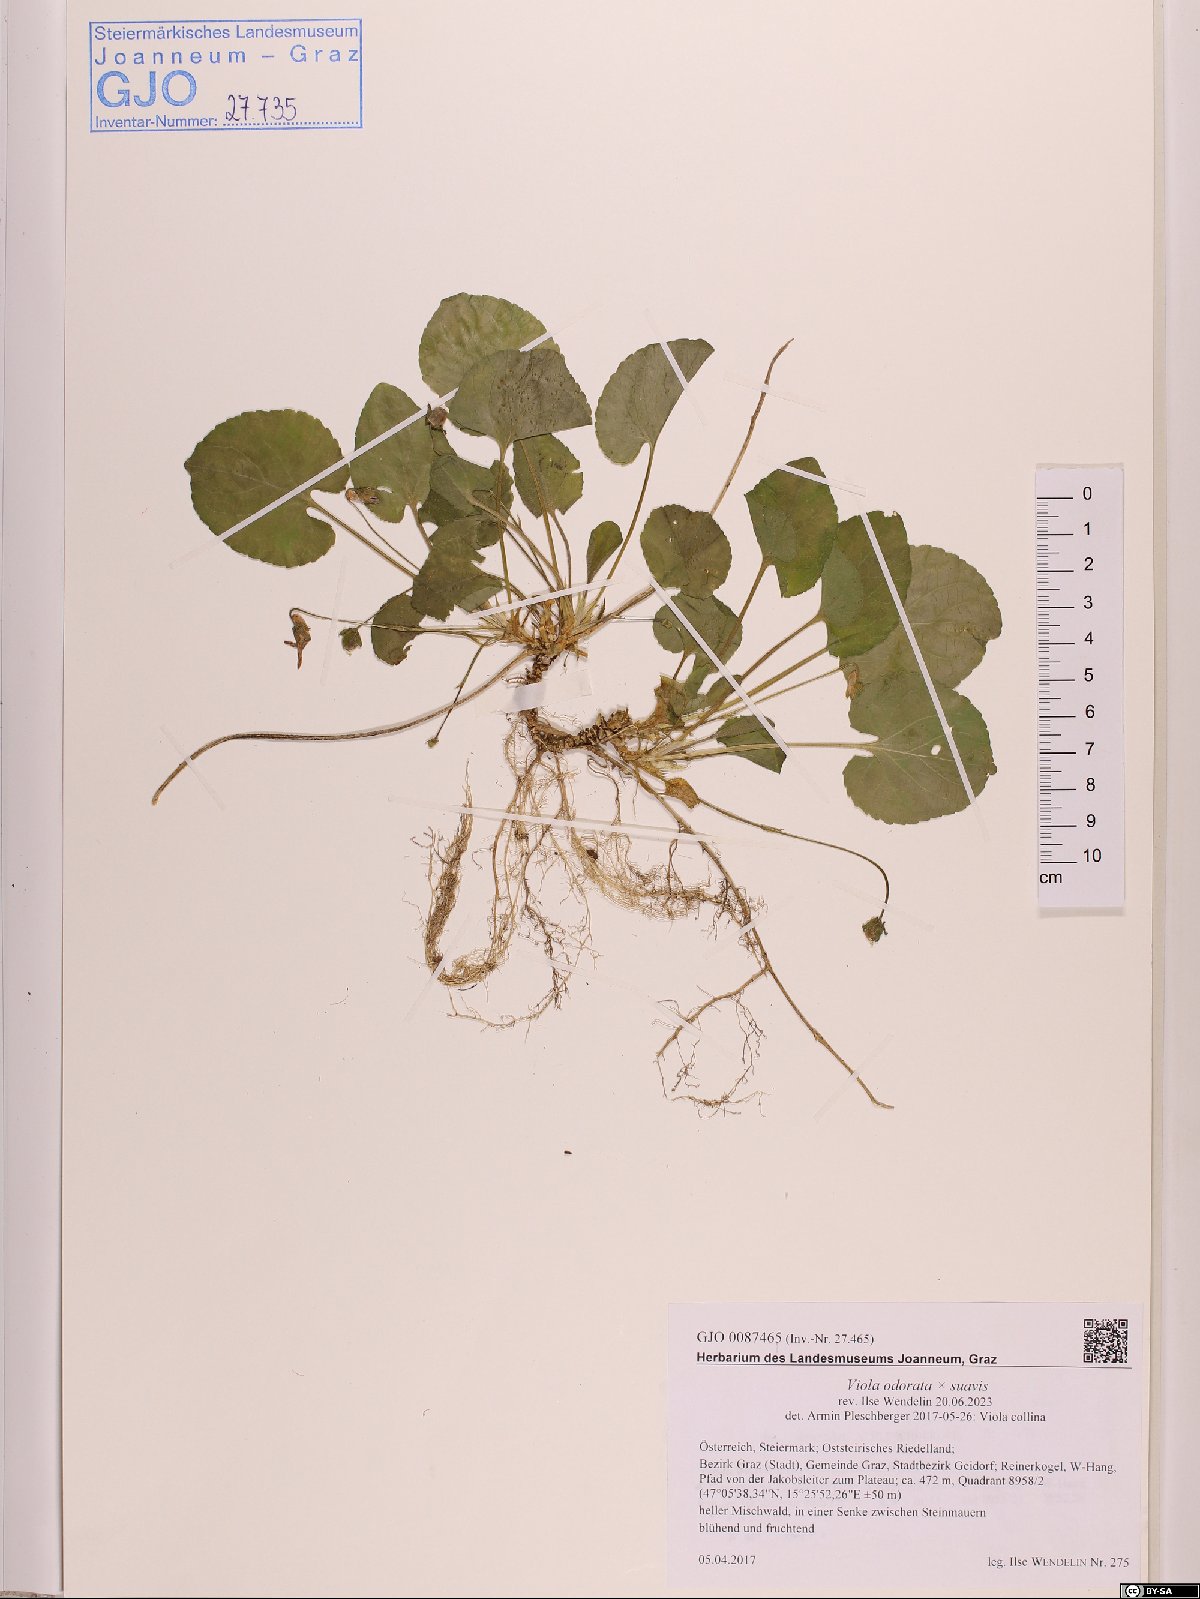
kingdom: Plantae
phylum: Tracheophyta
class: Magnoliopsida
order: Malpighiales
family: Violaceae
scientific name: Violaceae
